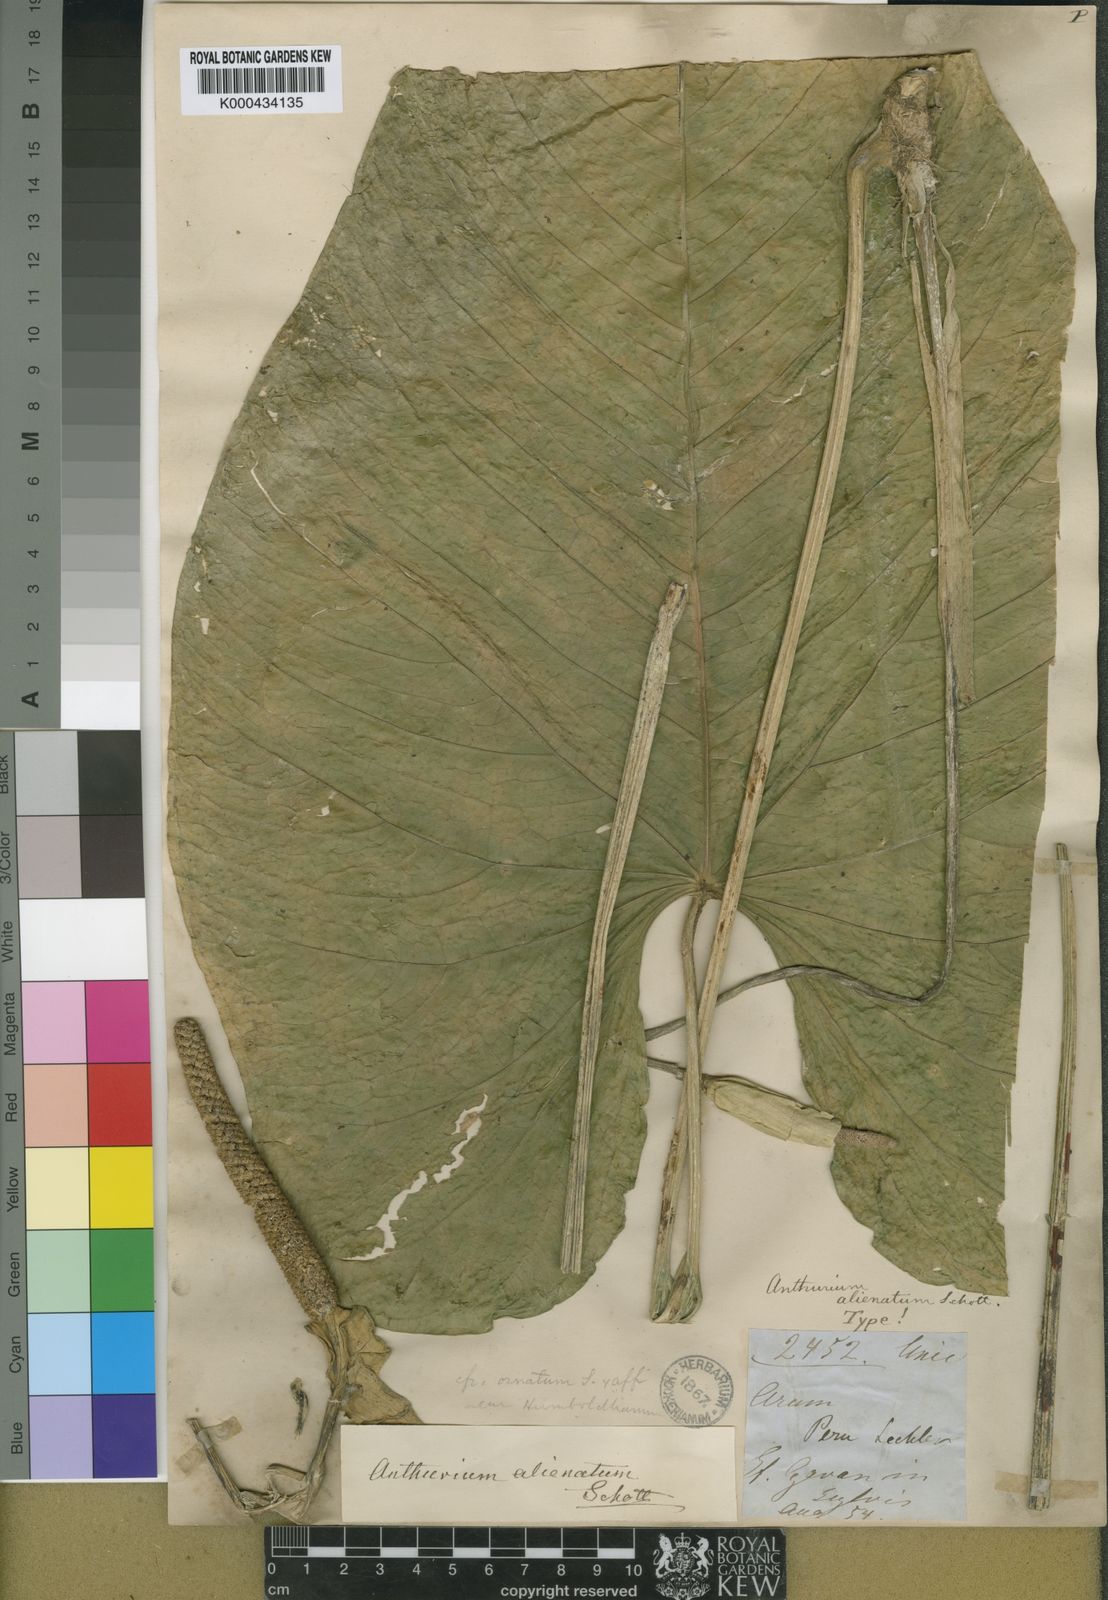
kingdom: Plantae
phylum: Tracheophyta
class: Liliopsida
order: Alismatales
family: Araceae
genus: Anthurium
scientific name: Anthurium sagittatum
